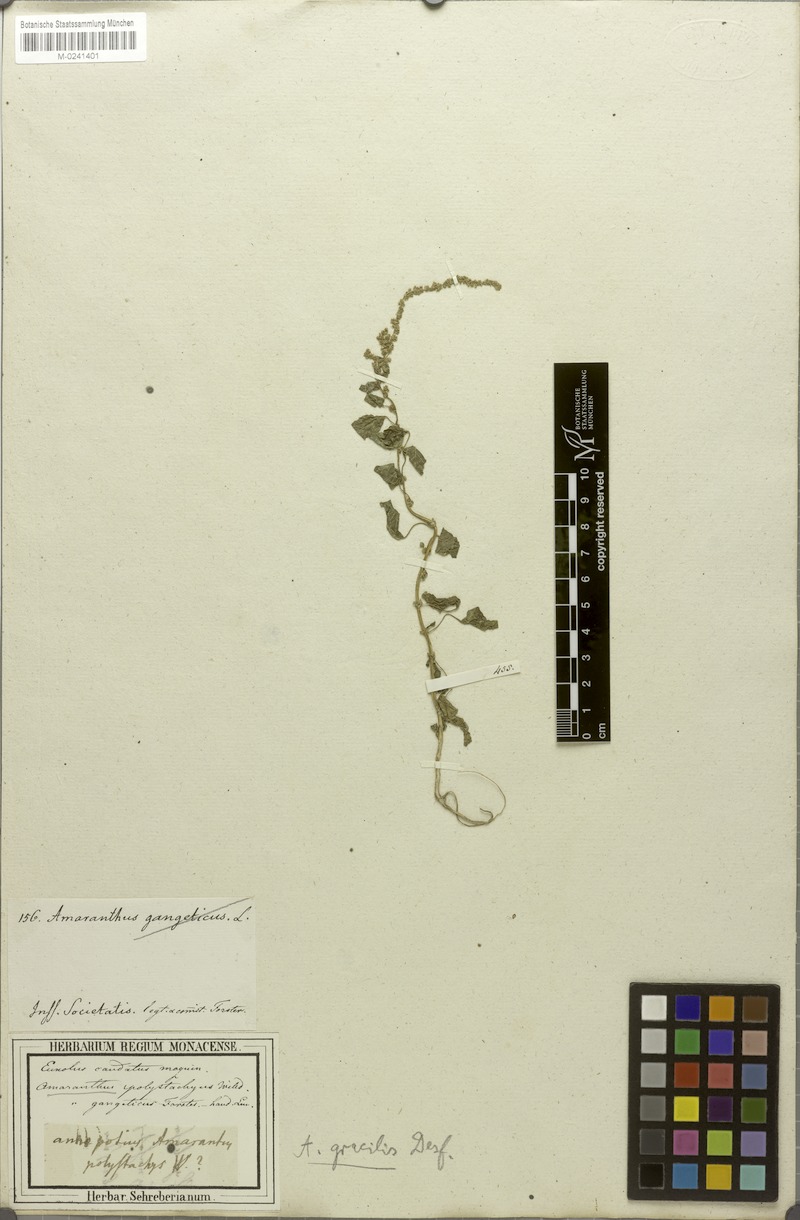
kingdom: Plantae
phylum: Tracheophyta
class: Magnoliopsida
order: Caryophyllales
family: Amaranthaceae
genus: Amaranthus
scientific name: Amaranthus viridis
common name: Slender amaranth
